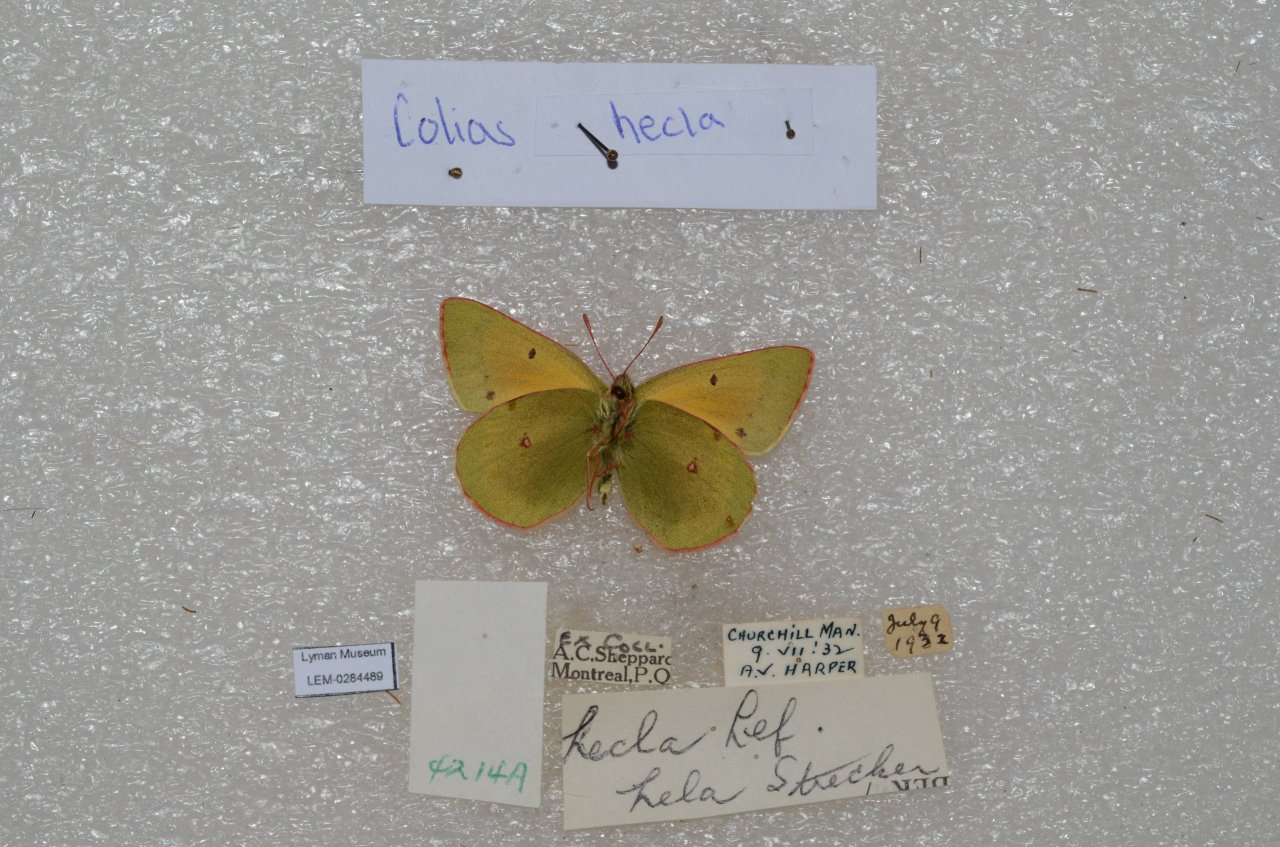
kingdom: Animalia
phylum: Arthropoda
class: Insecta
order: Lepidoptera
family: Pieridae
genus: Colias
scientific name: Colias hecla
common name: Hecla Sulphur
